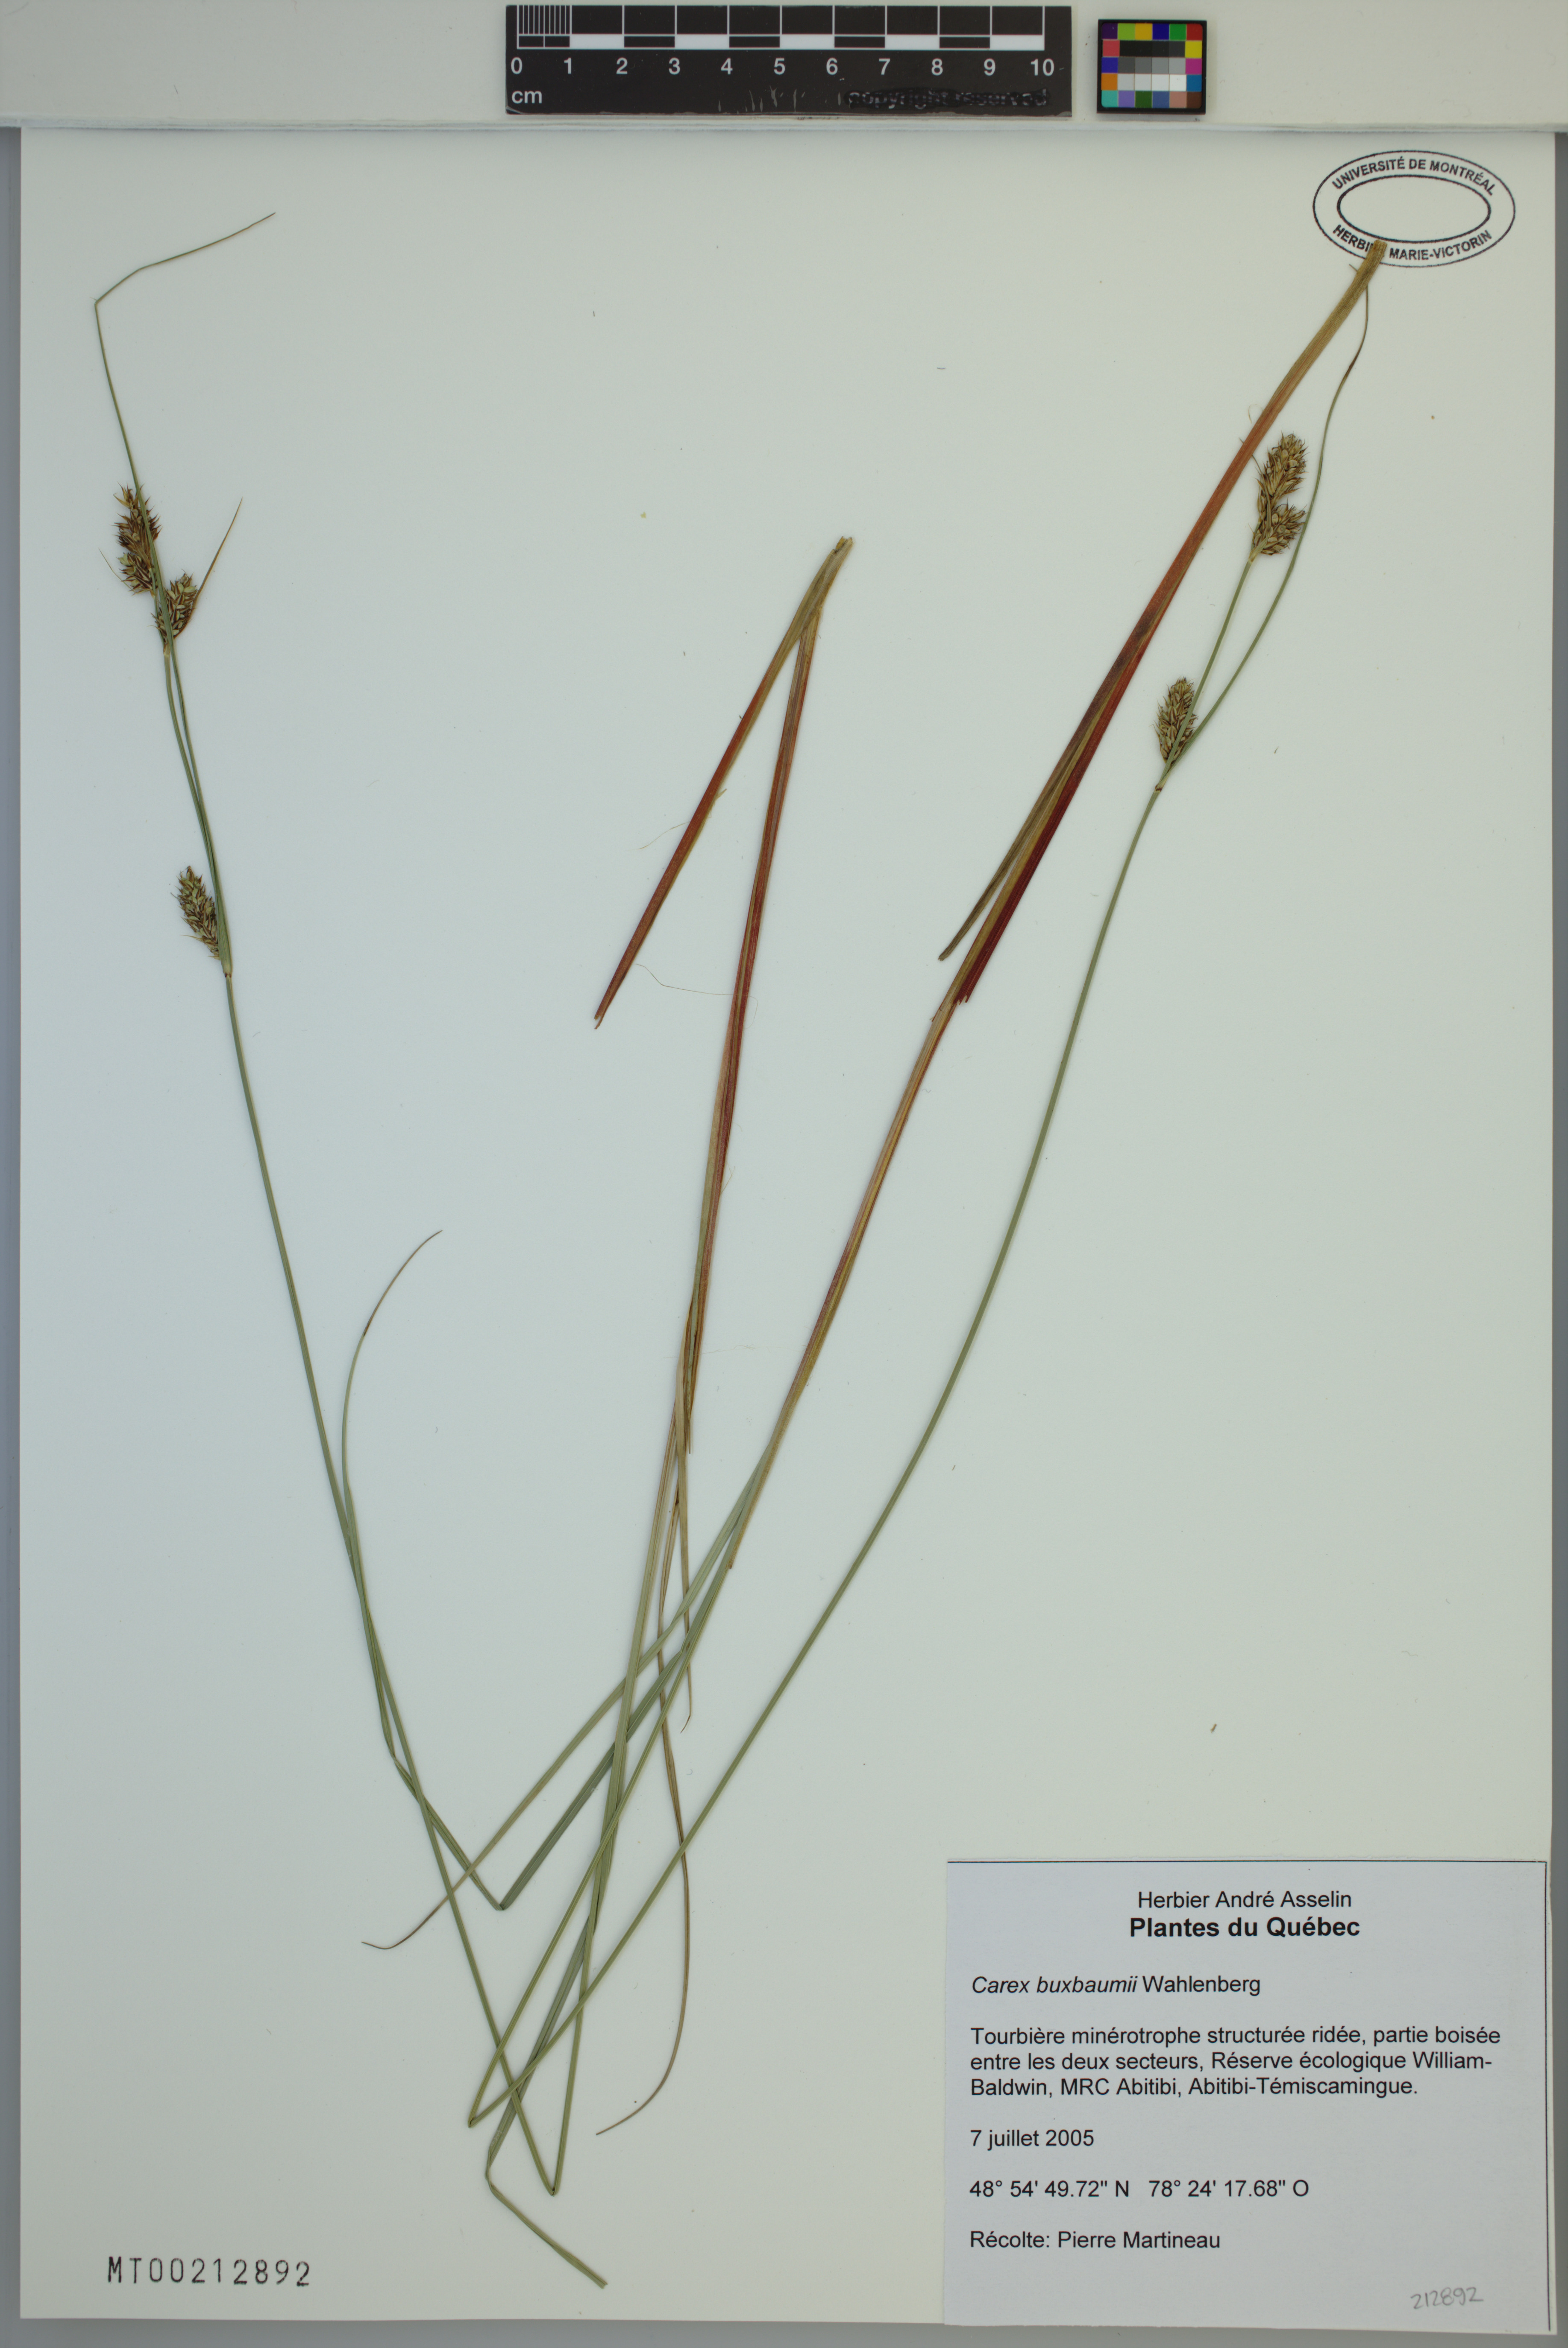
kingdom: Plantae
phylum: Tracheophyta
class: Liliopsida
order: Poales
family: Cyperaceae
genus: Carex
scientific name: Carex buxbaumii
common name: Club sedge
